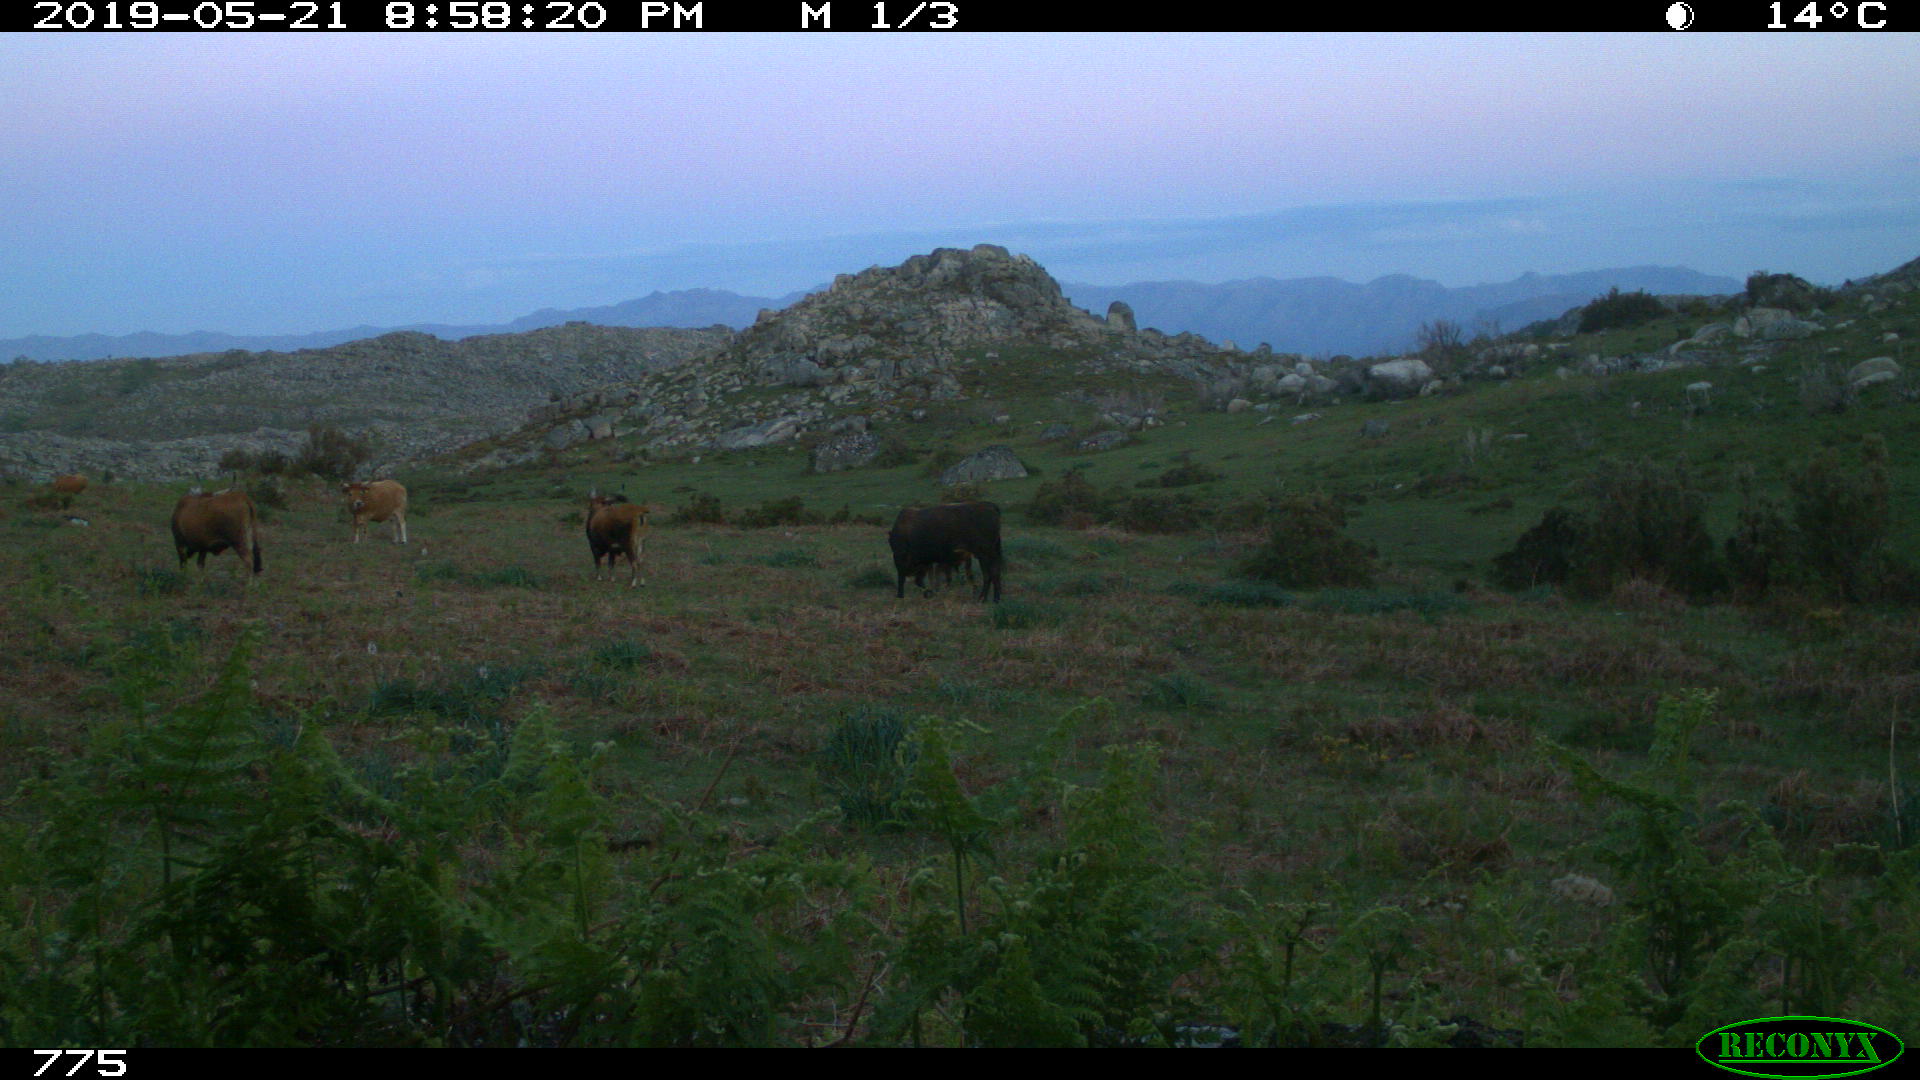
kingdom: Animalia
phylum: Chordata
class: Mammalia
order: Artiodactyla
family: Bovidae
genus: Bos
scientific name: Bos taurus
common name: Domesticated cattle
